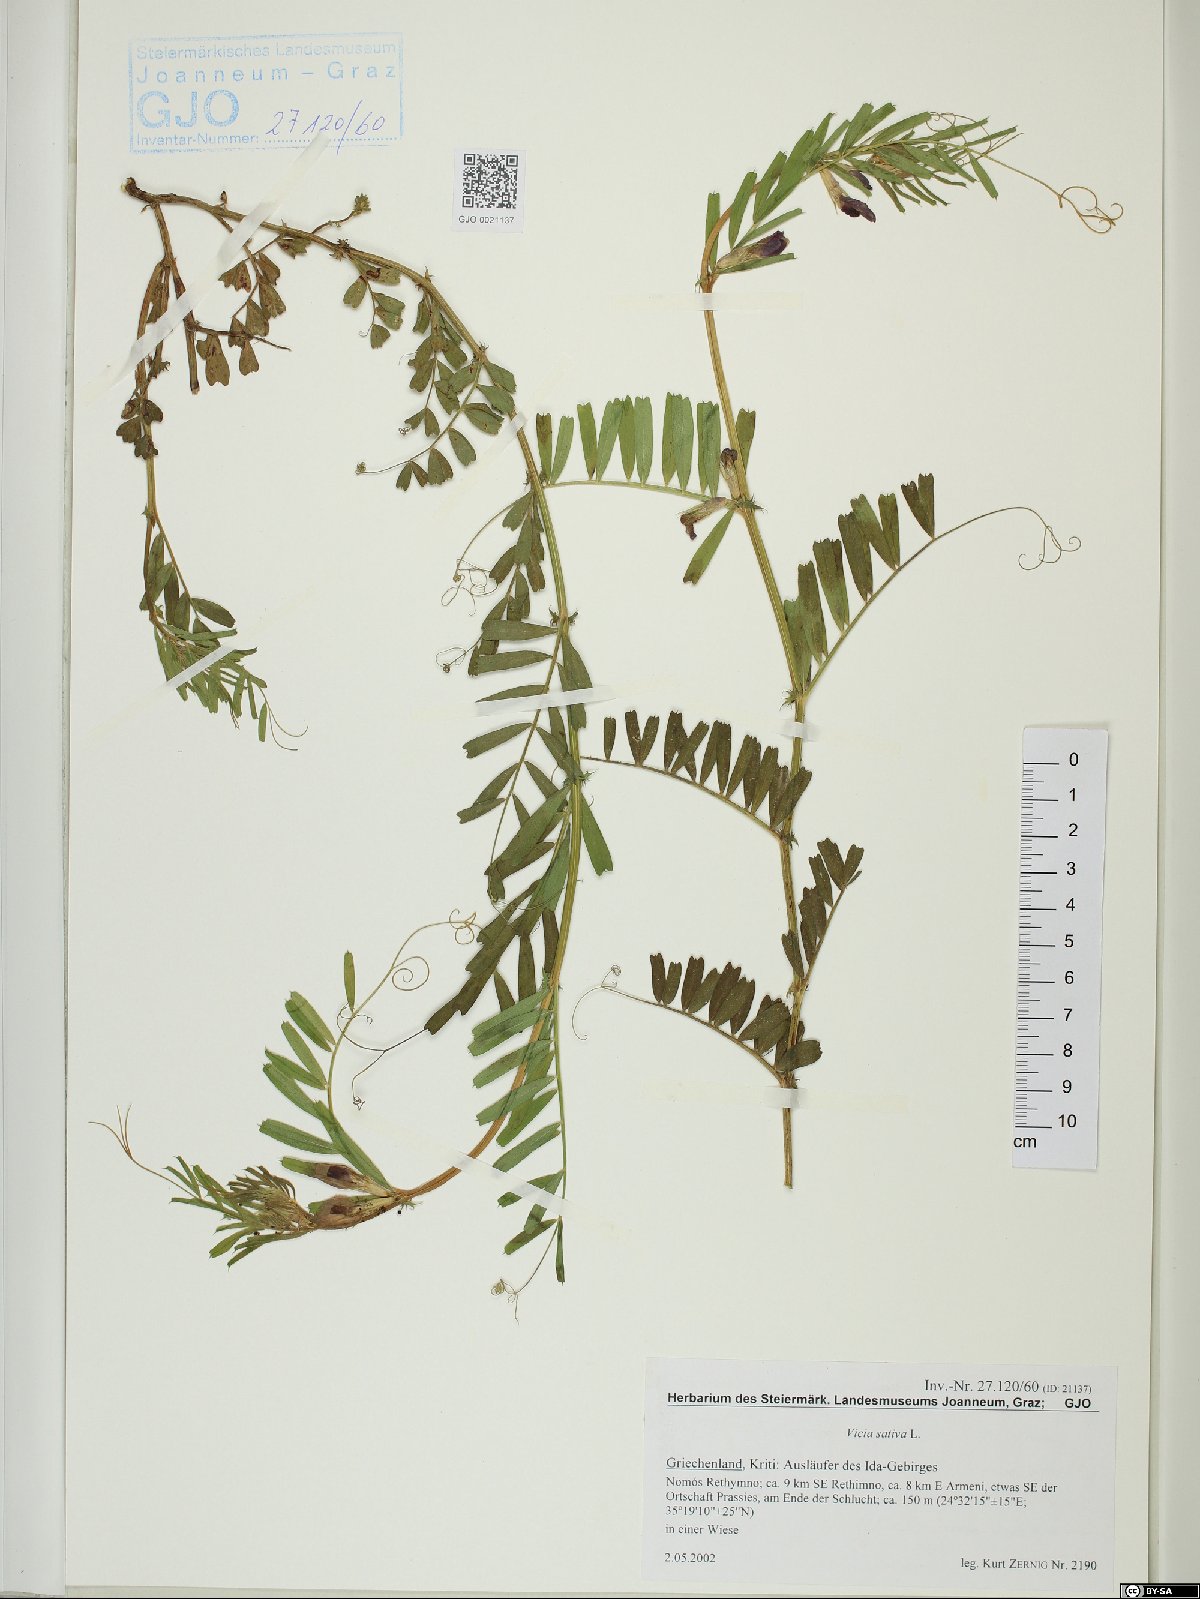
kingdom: Plantae
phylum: Tracheophyta
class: Magnoliopsida
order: Fabales
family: Fabaceae
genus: Vicia
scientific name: Vicia sativa
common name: Garden vetch
